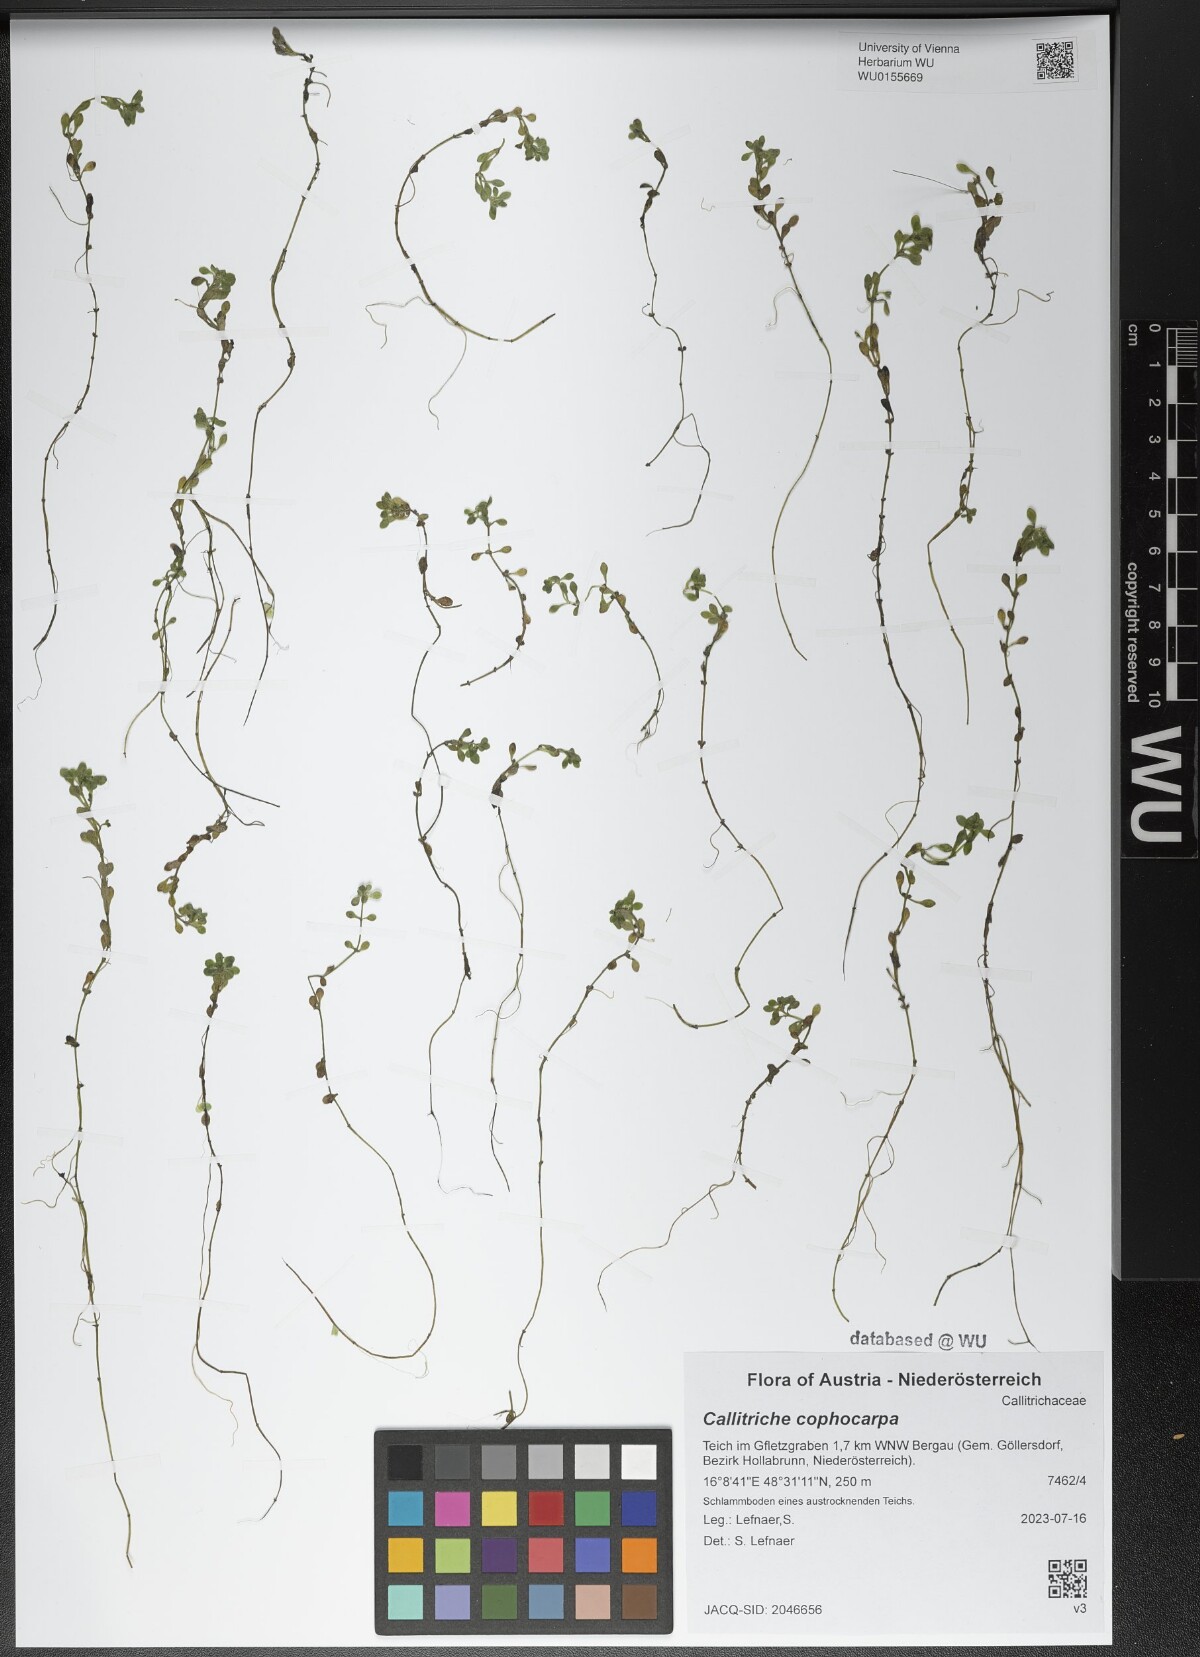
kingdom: Plantae
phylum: Tracheophyta
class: Magnoliopsida
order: Lamiales
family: Plantaginaceae
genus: Callitriche
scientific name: Callitriche cophocarpa
